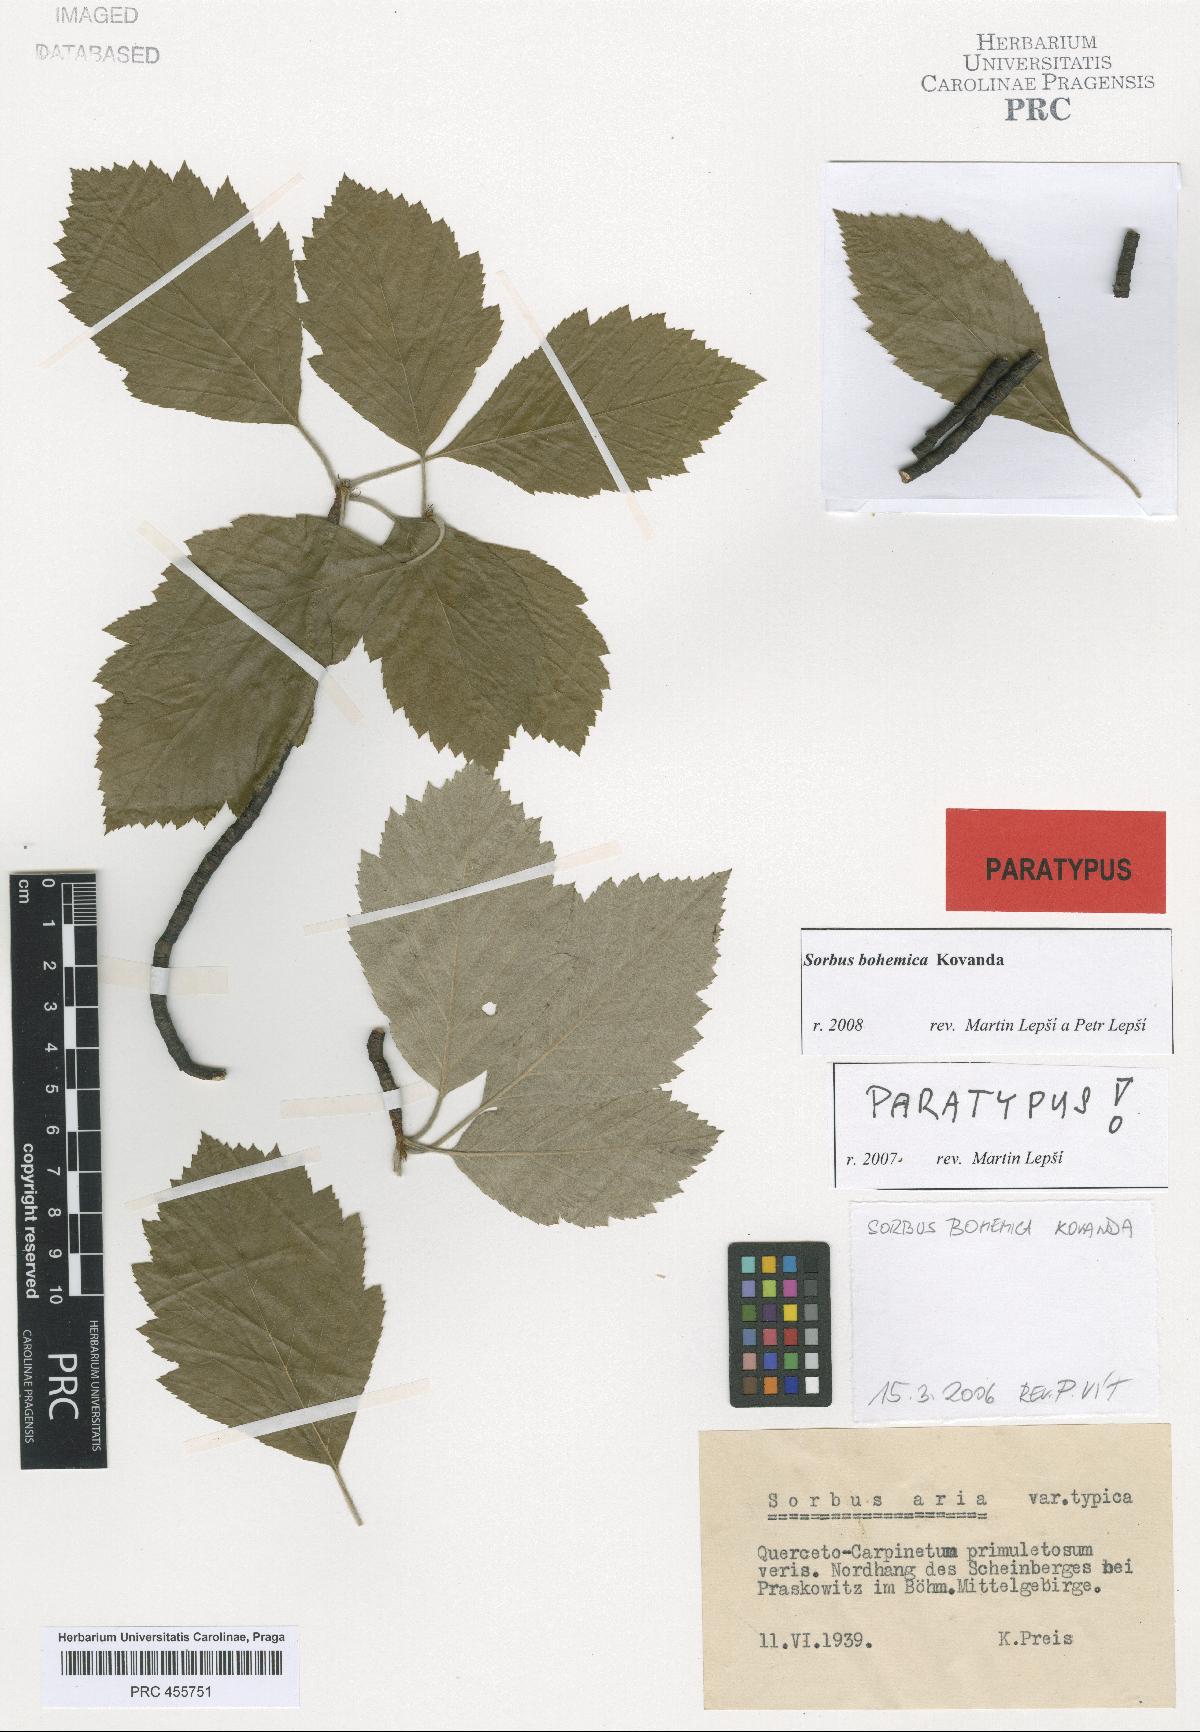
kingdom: Plantae
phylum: Tracheophyta
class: Magnoliopsida
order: Rosales
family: Rosaceae
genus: Karpatiosorbus
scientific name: Karpatiosorbus bohemica
